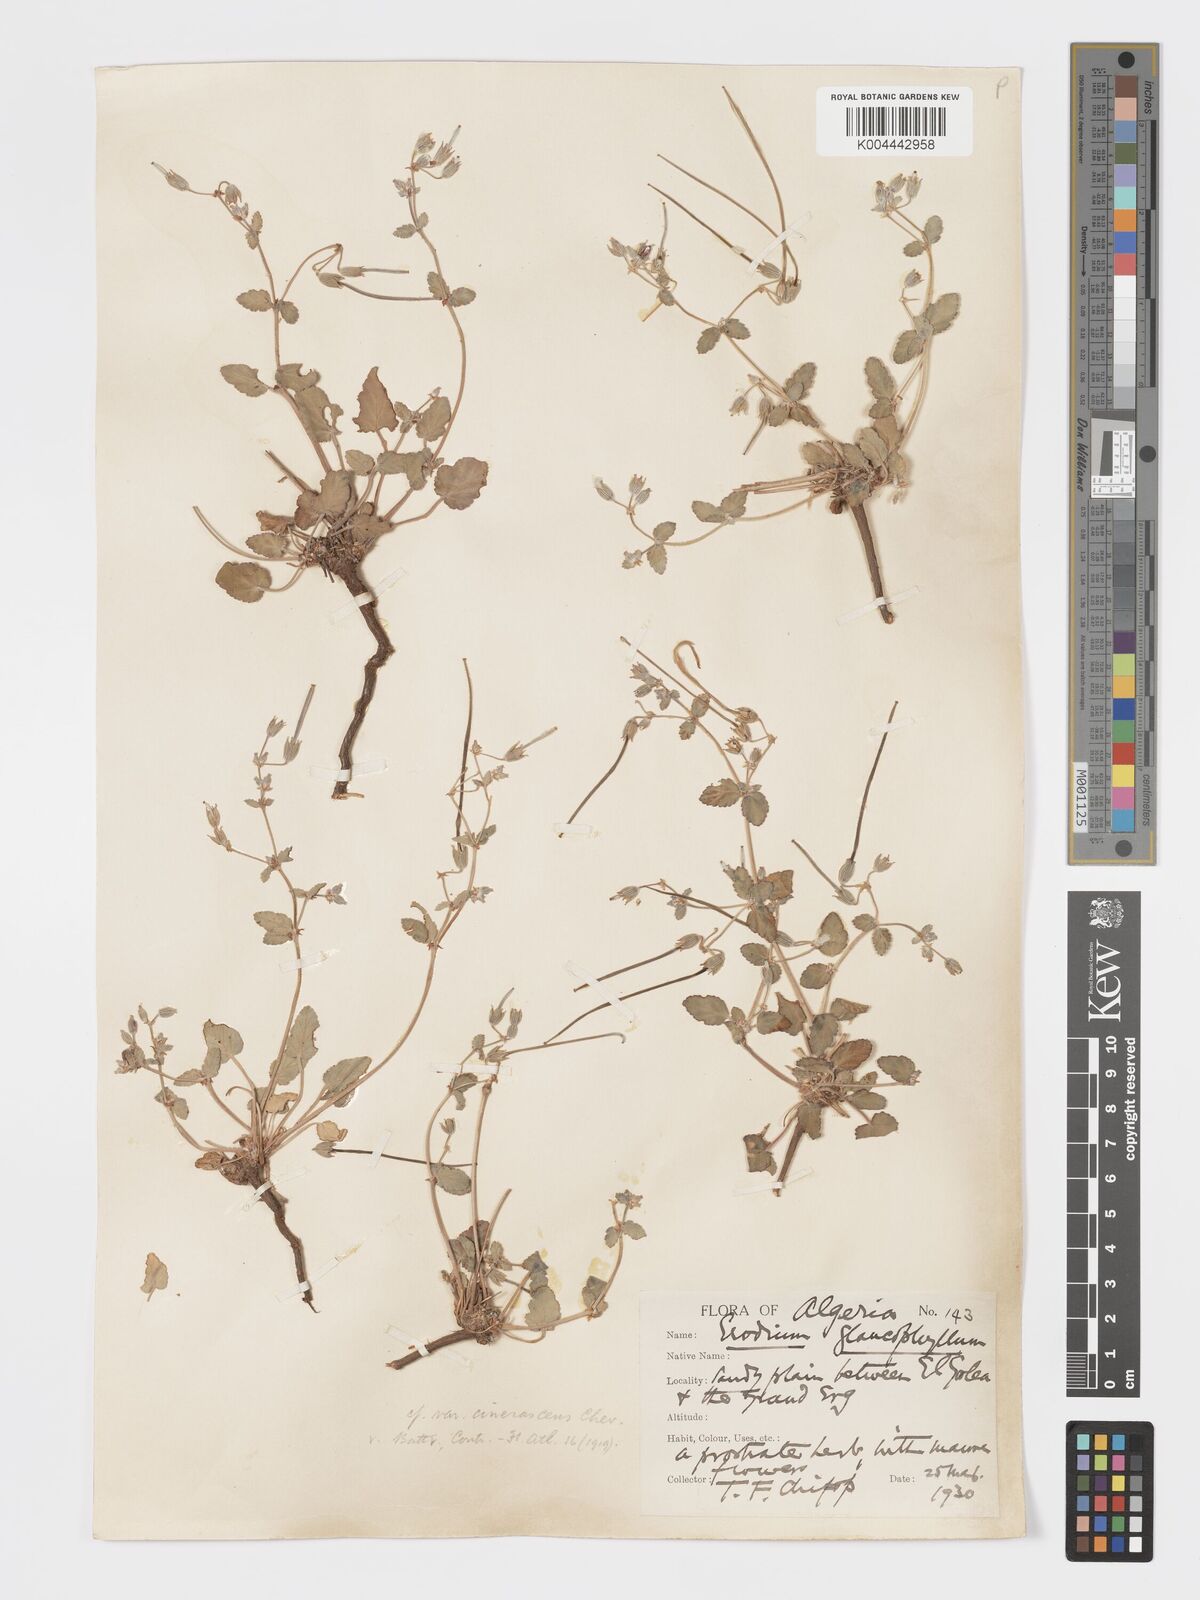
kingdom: Plantae
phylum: Tracheophyta
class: Magnoliopsida
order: Geraniales
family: Geraniaceae
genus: Erodium
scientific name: Erodium glaucophyllum
